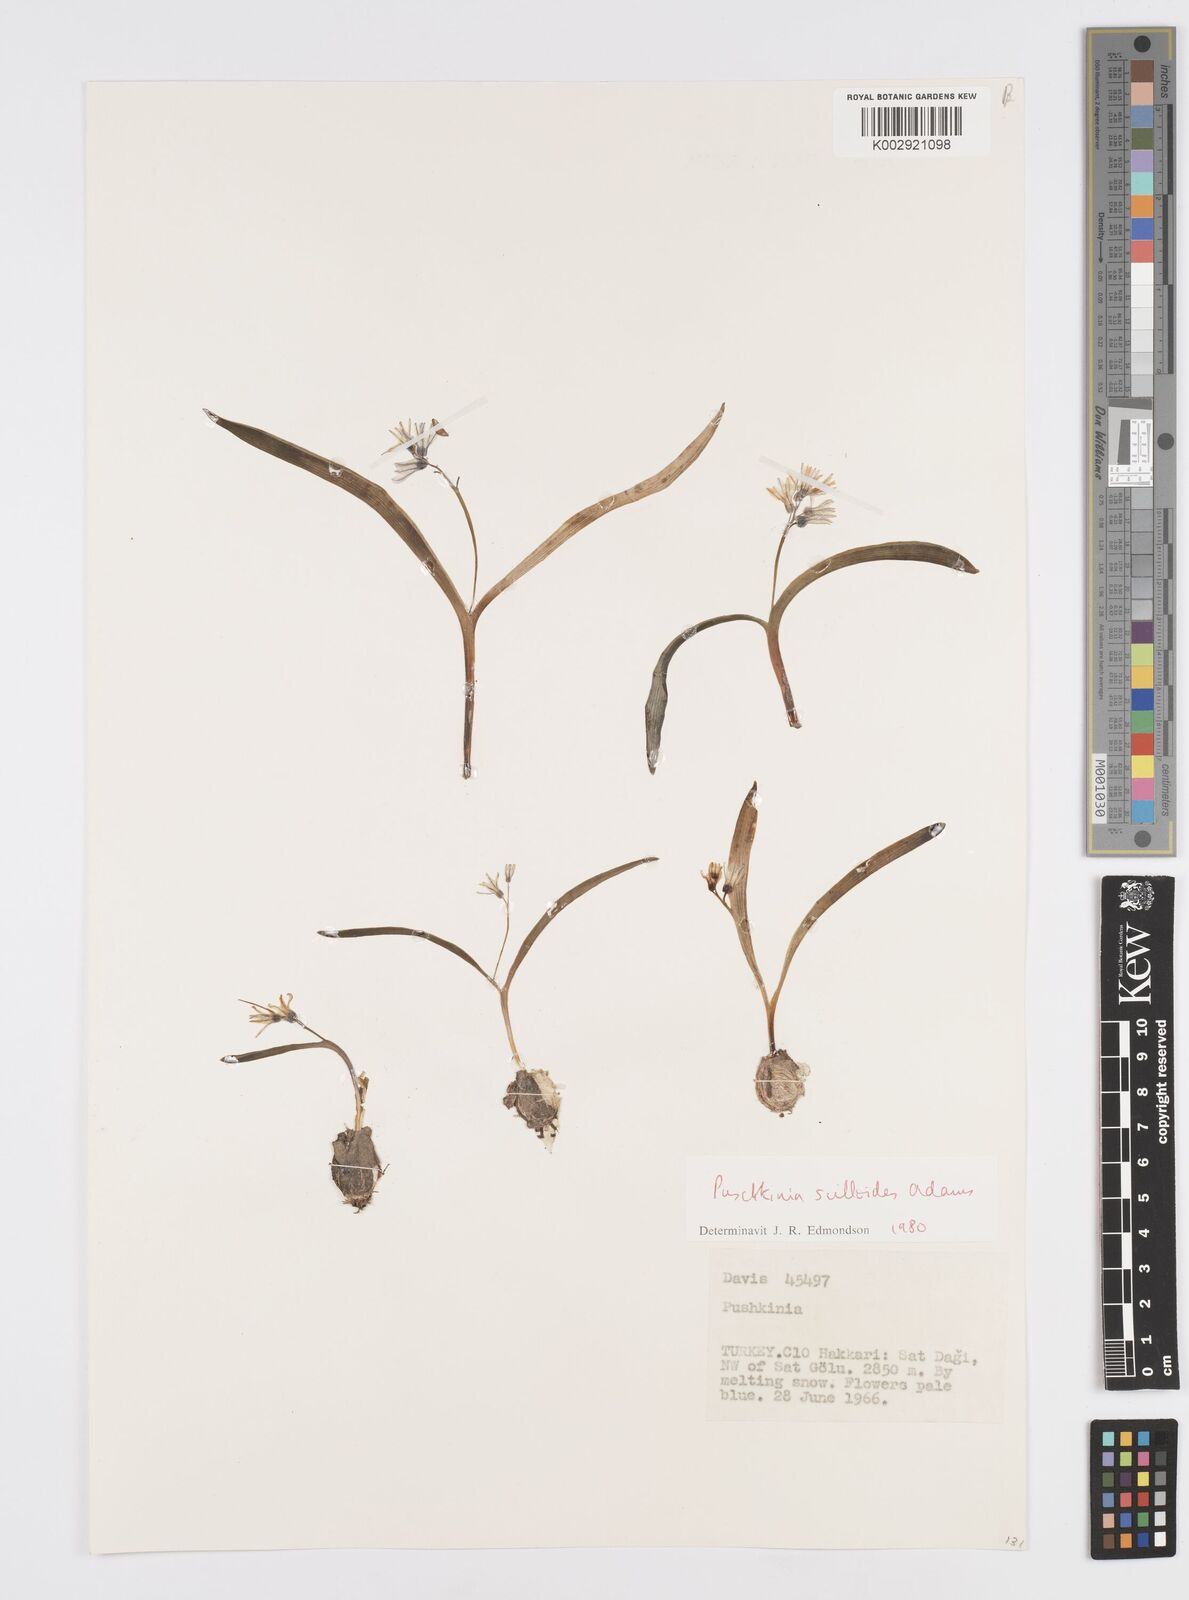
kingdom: Plantae
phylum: Tracheophyta
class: Liliopsida
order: Asparagales
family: Asparagaceae
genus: Puschkinia
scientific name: Puschkinia scilloides
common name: Striped squill
